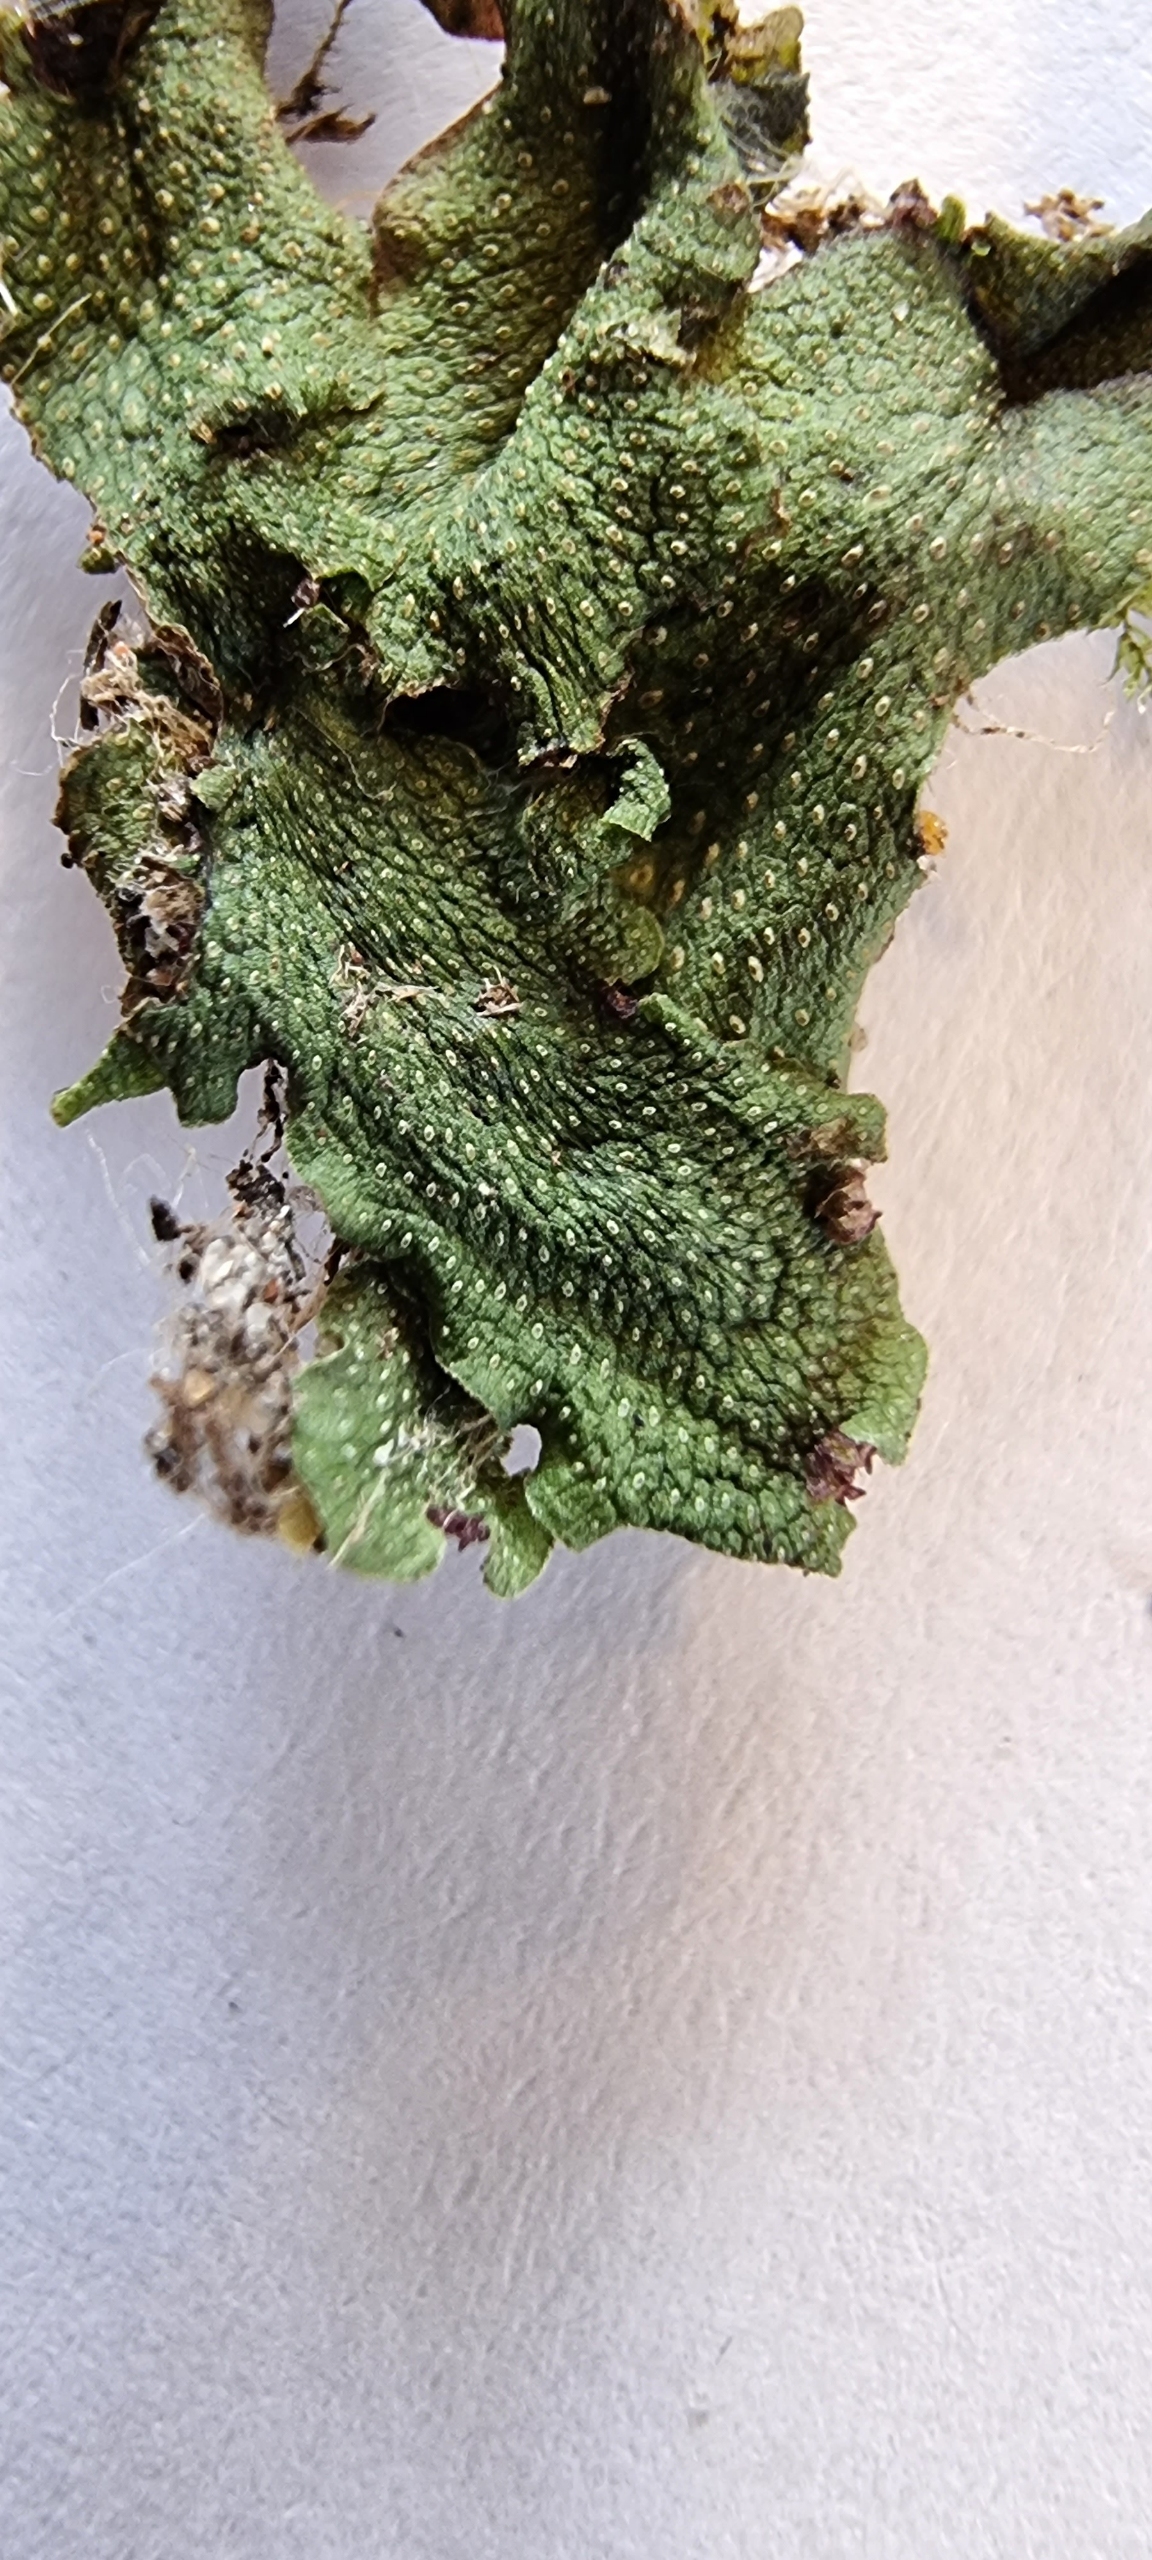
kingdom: Plantae
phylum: Marchantiophyta
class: Marchantiopsida
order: Marchantiales
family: Conocephalaceae
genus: Conocephalum
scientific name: Conocephalum salebrosum
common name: Ru krokodillemos
